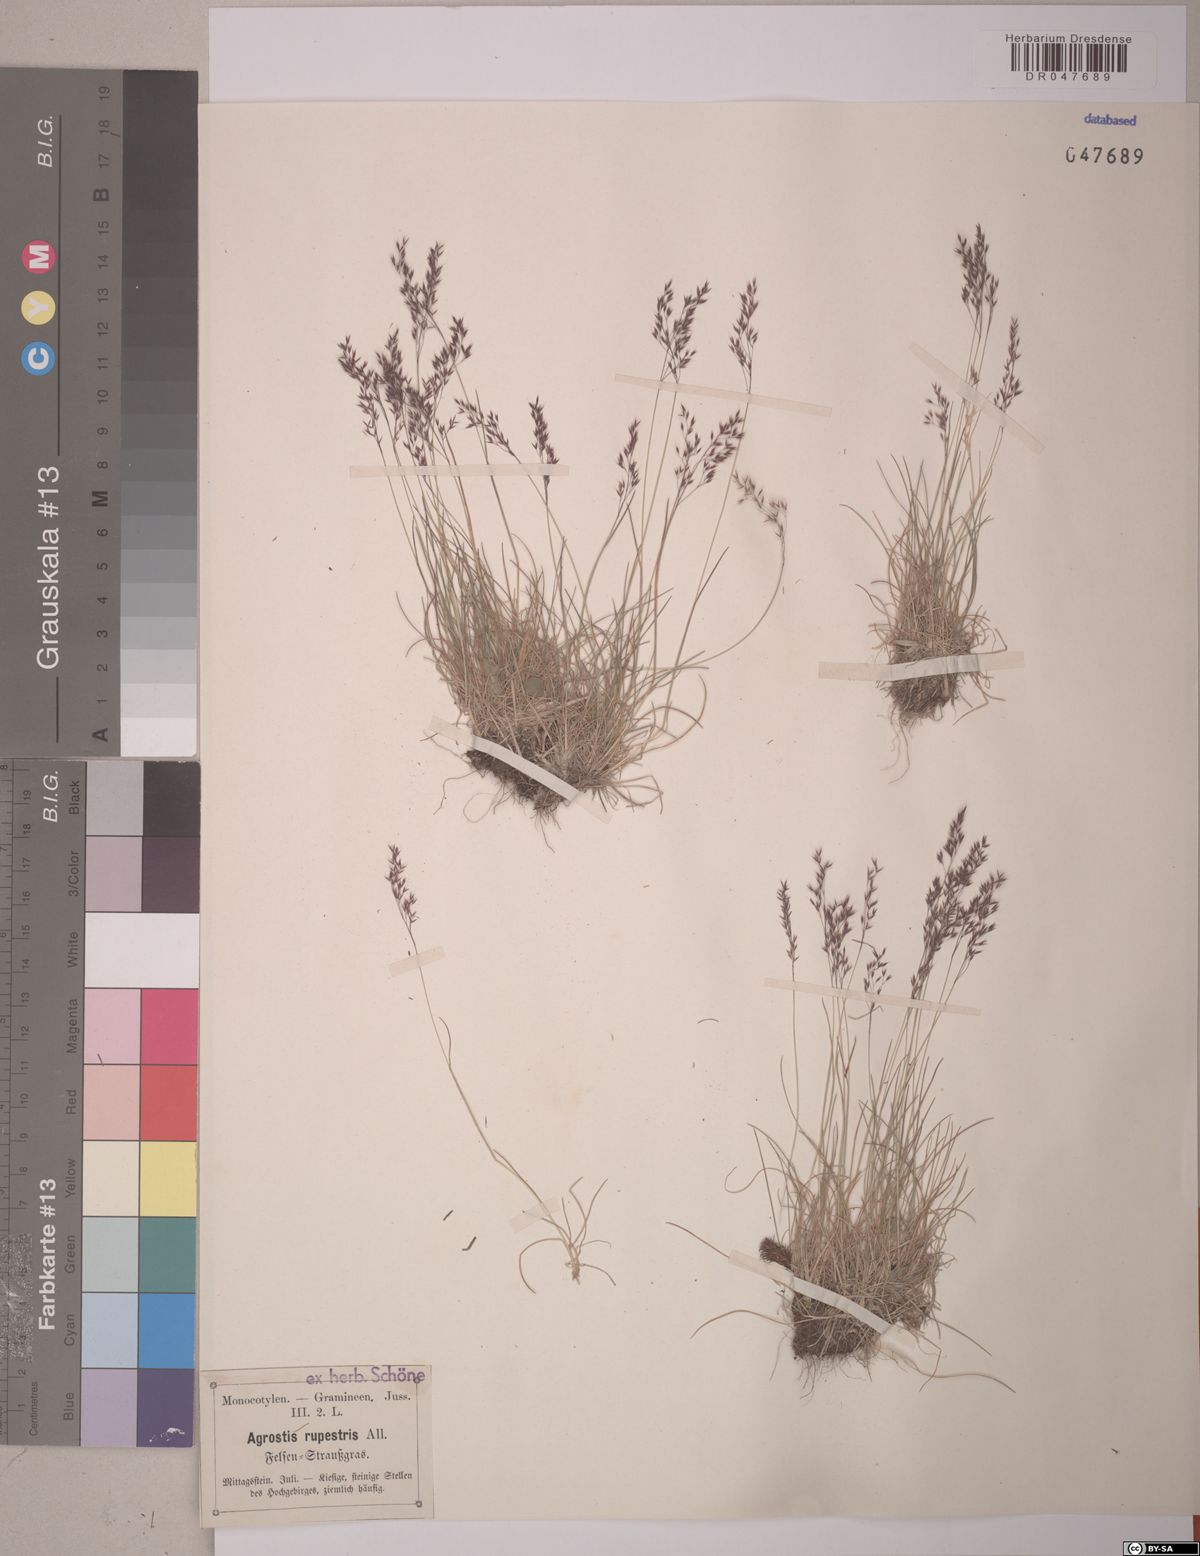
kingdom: Plantae
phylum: Tracheophyta
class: Liliopsida
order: Poales
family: Poaceae
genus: Agrostis
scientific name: Agrostis rupestris
